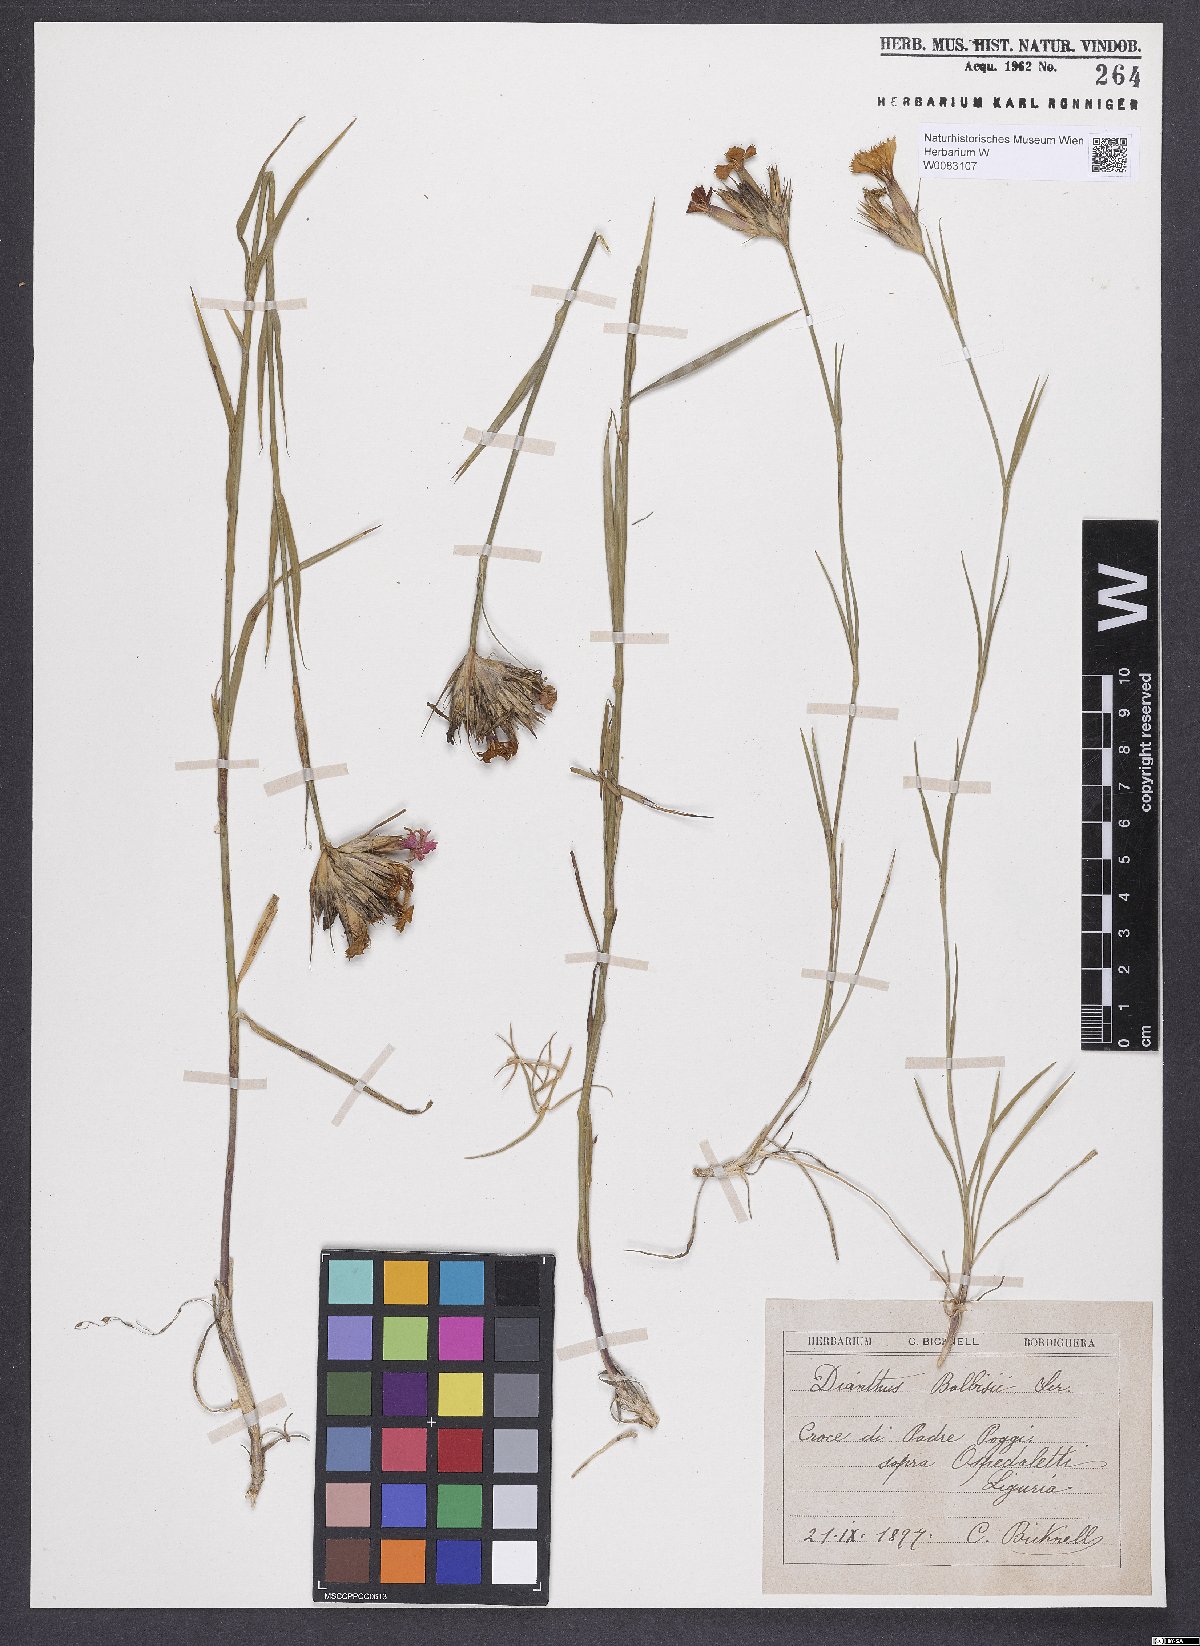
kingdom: Plantae
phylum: Tracheophyta
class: Magnoliopsida
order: Caryophyllales
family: Caryophyllaceae
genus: Dianthus
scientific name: Dianthus crassipes
